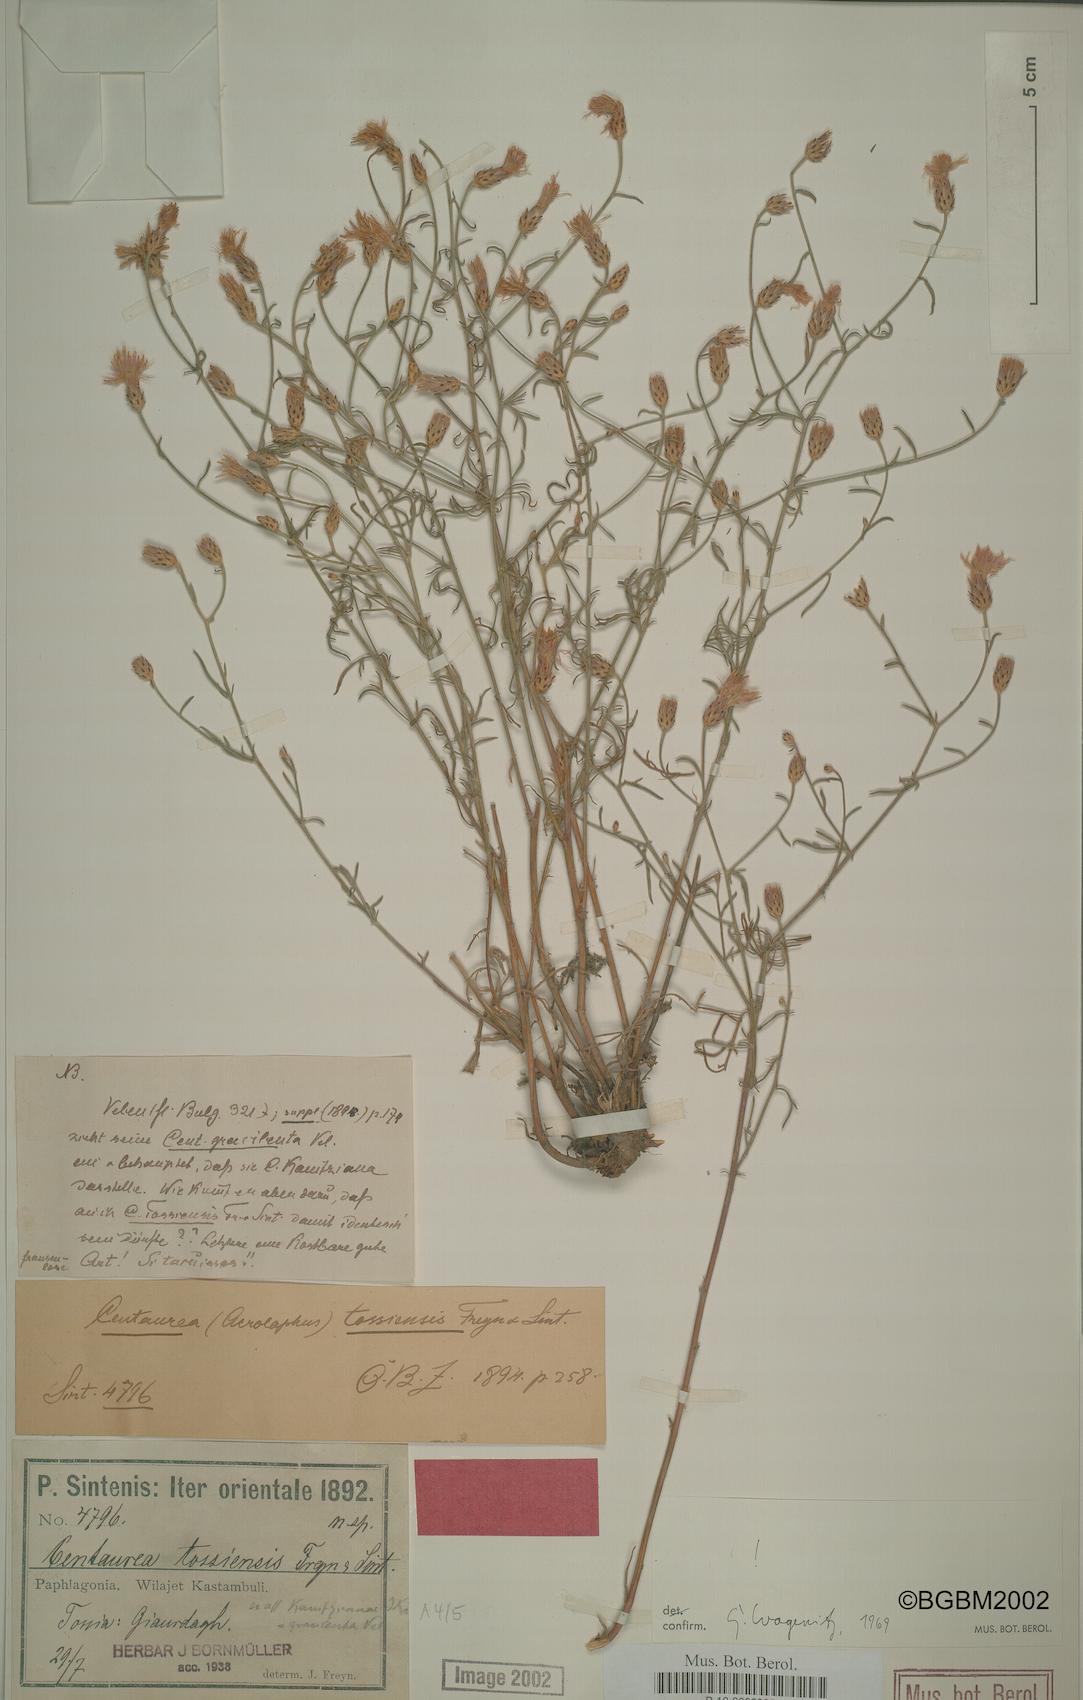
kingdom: Plantae
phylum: Tracheophyta
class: Magnoliopsida
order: Asterales
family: Asteraceae
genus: Centaurea
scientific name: Centaurea tossiensis
